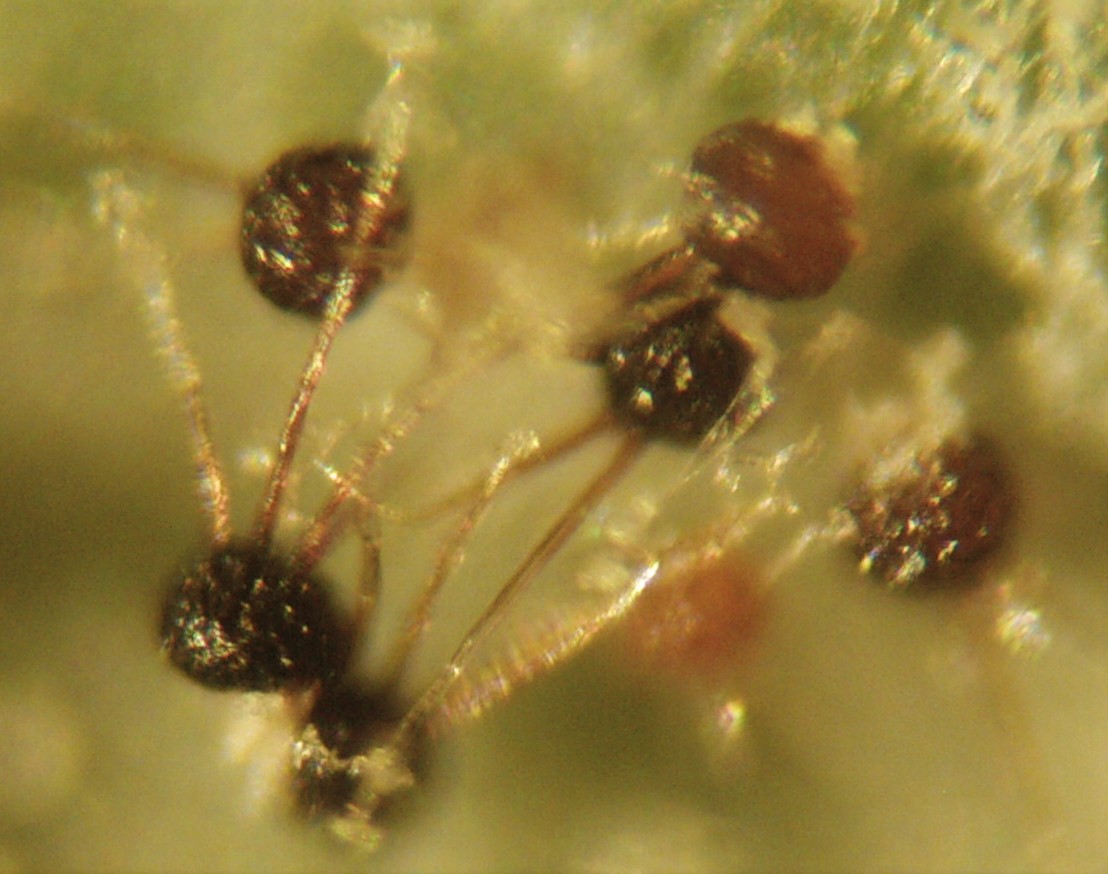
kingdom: Fungi
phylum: Ascomycota
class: Leotiomycetes
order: Helotiales
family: Erysiphaceae
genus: Podosphaera
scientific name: Podosphaera tridactyla
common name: Plum mildew
